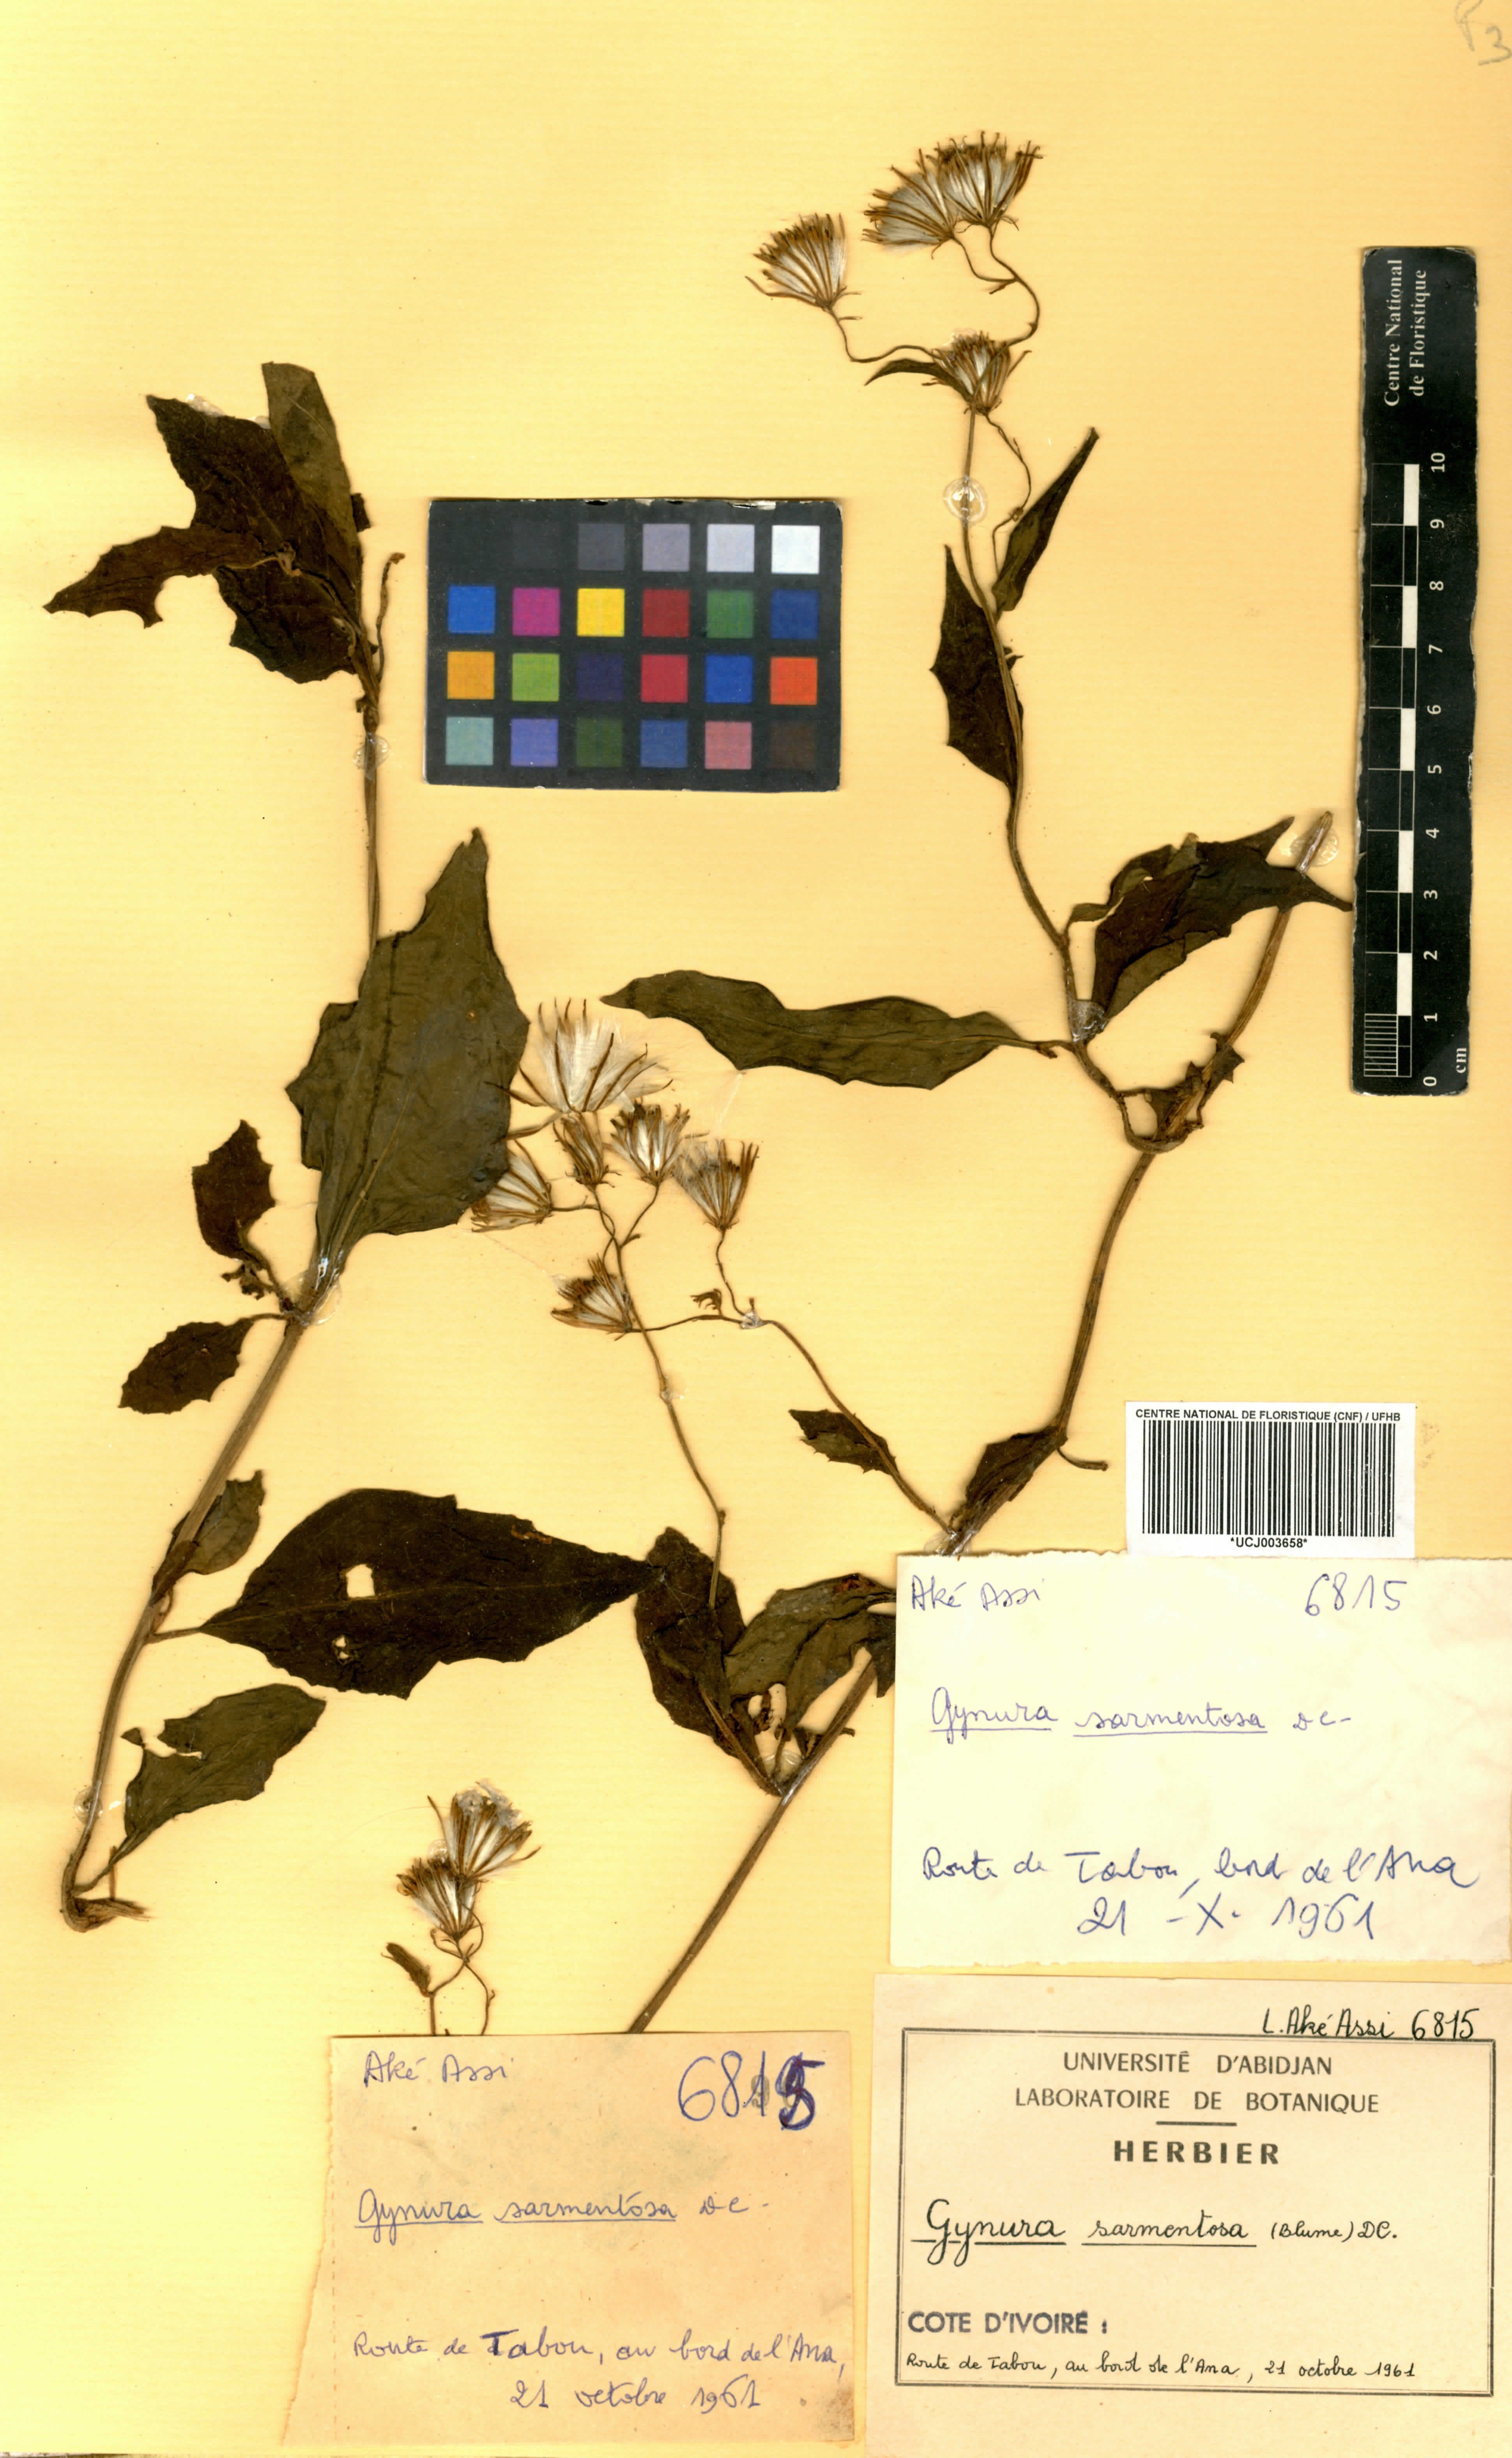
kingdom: Plantae
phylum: Tracheophyta
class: Magnoliopsida
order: Asterales
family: Asteraceae
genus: Gynura
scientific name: Gynura procumbens
